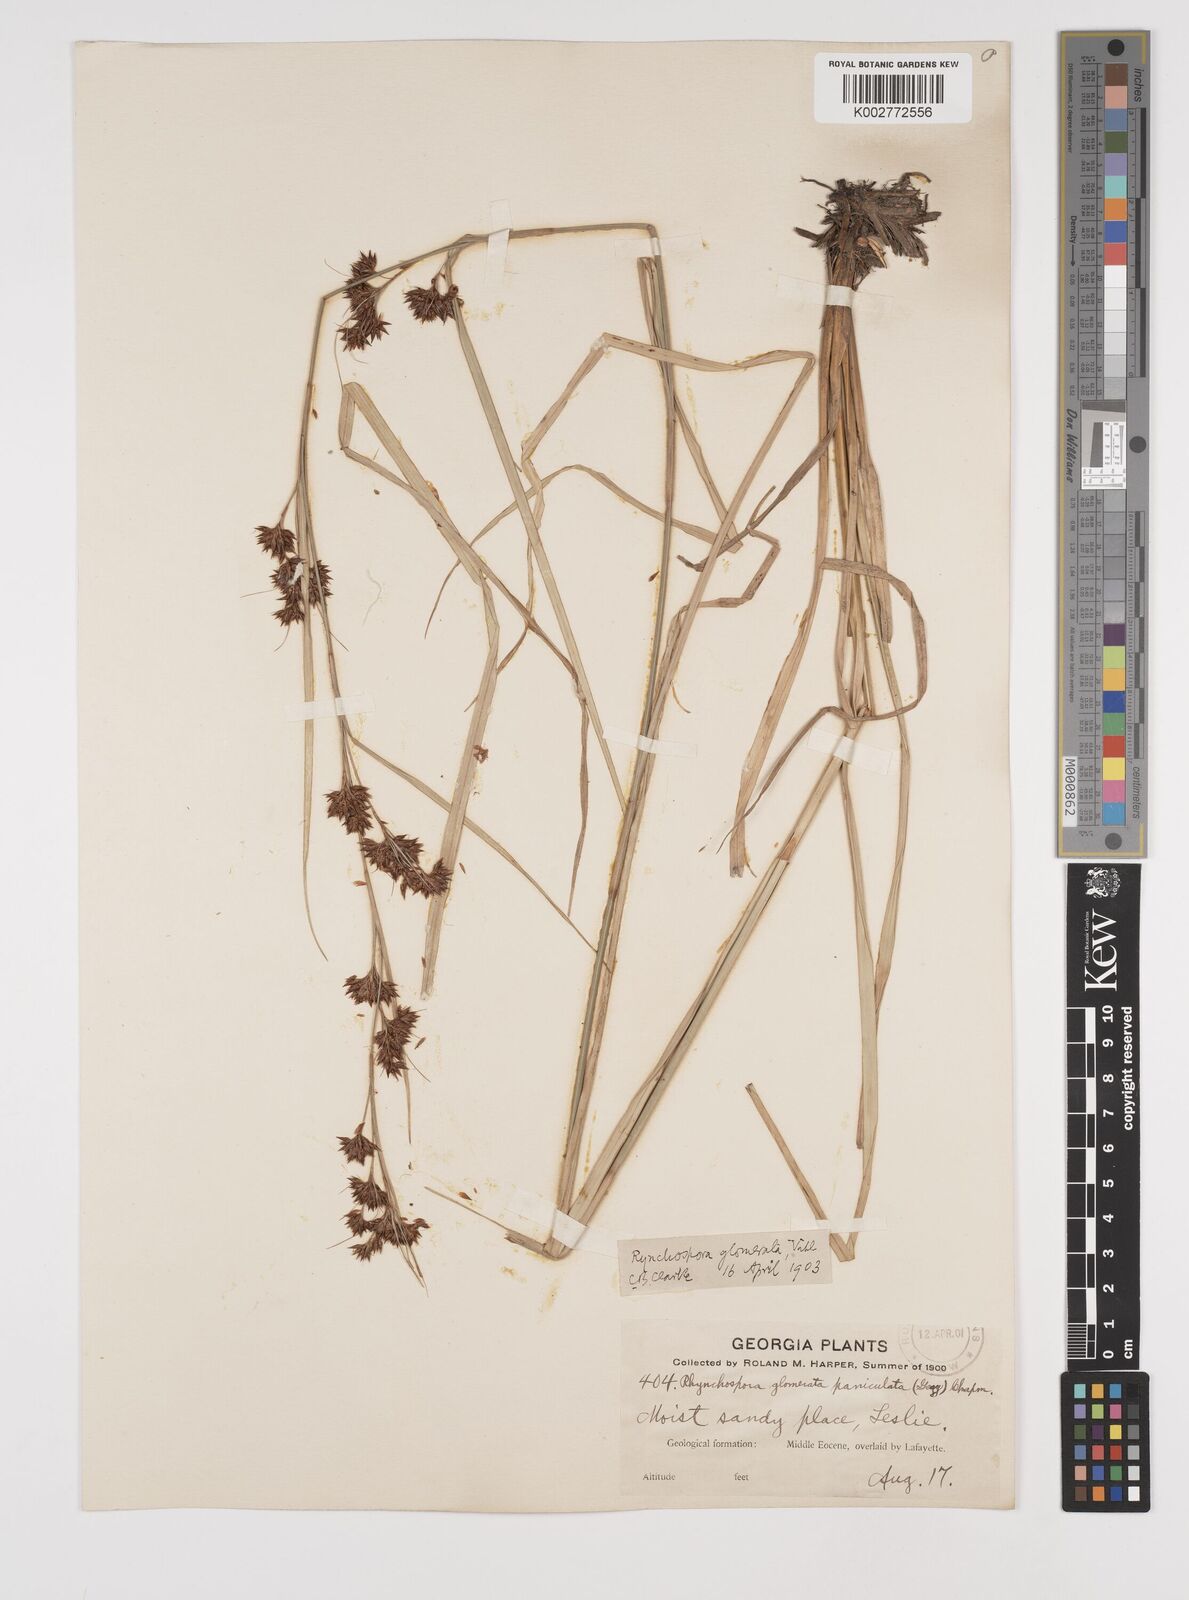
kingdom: Plantae
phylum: Tracheophyta
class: Liliopsida
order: Poales
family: Cyperaceae
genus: Rhynchospora
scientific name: Rhynchospora glomerata
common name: Cluster beak sedge
